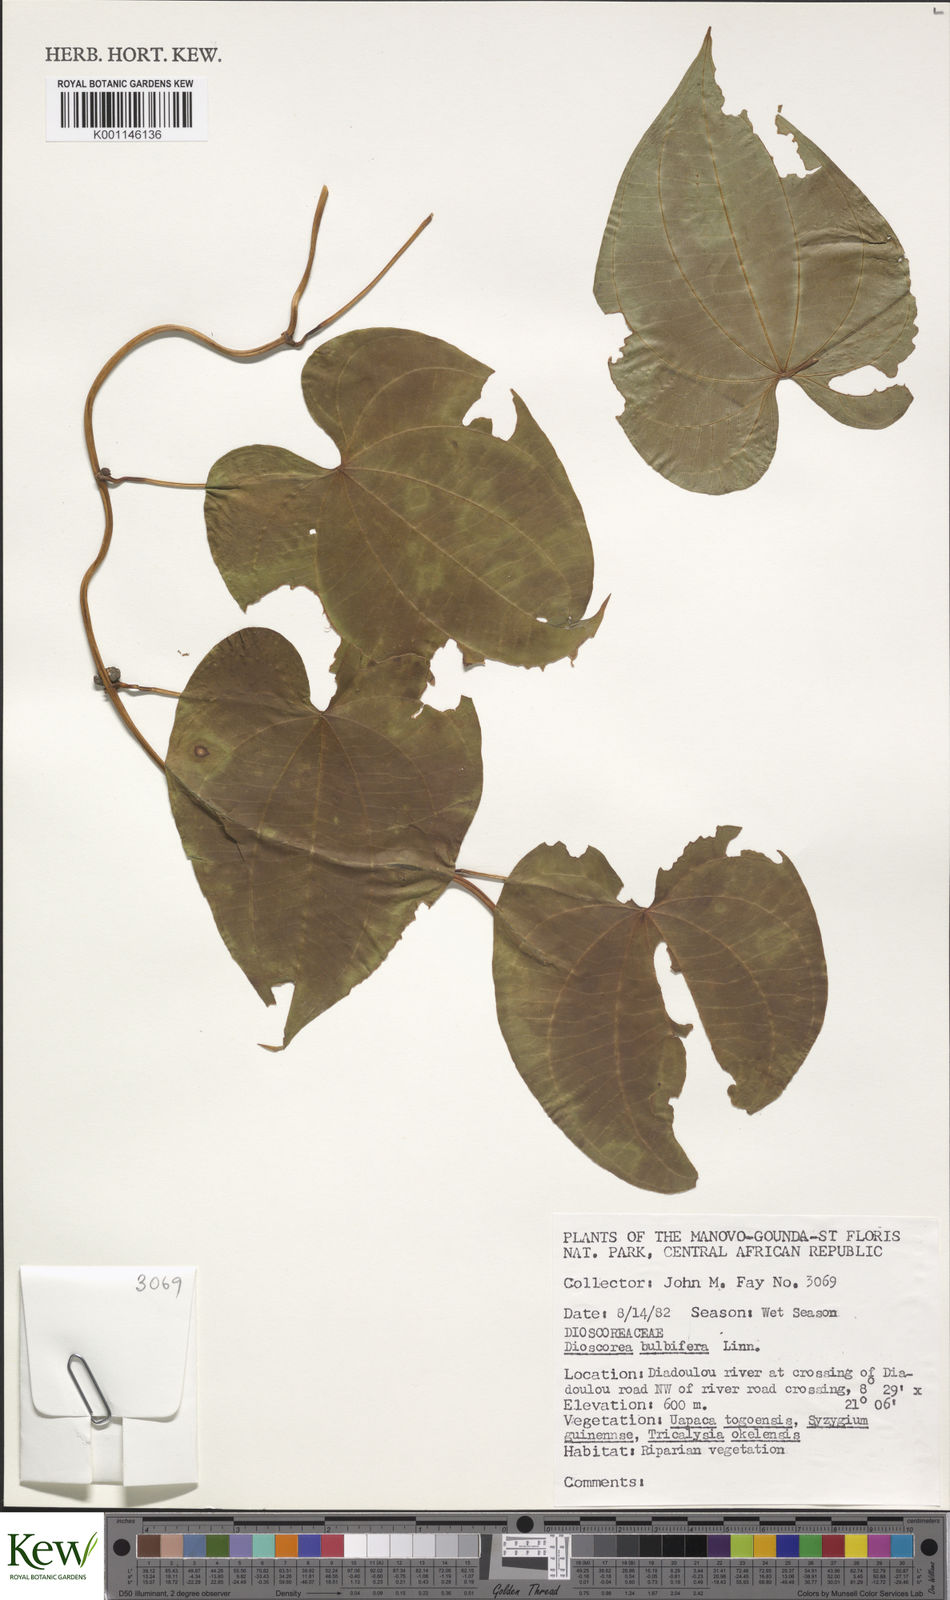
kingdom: Plantae
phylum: Tracheophyta
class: Liliopsida
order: Dioscoreales
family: Dioscoreaceae
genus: Dioscorea
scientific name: Dioscorea bulbifera
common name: Air yam
